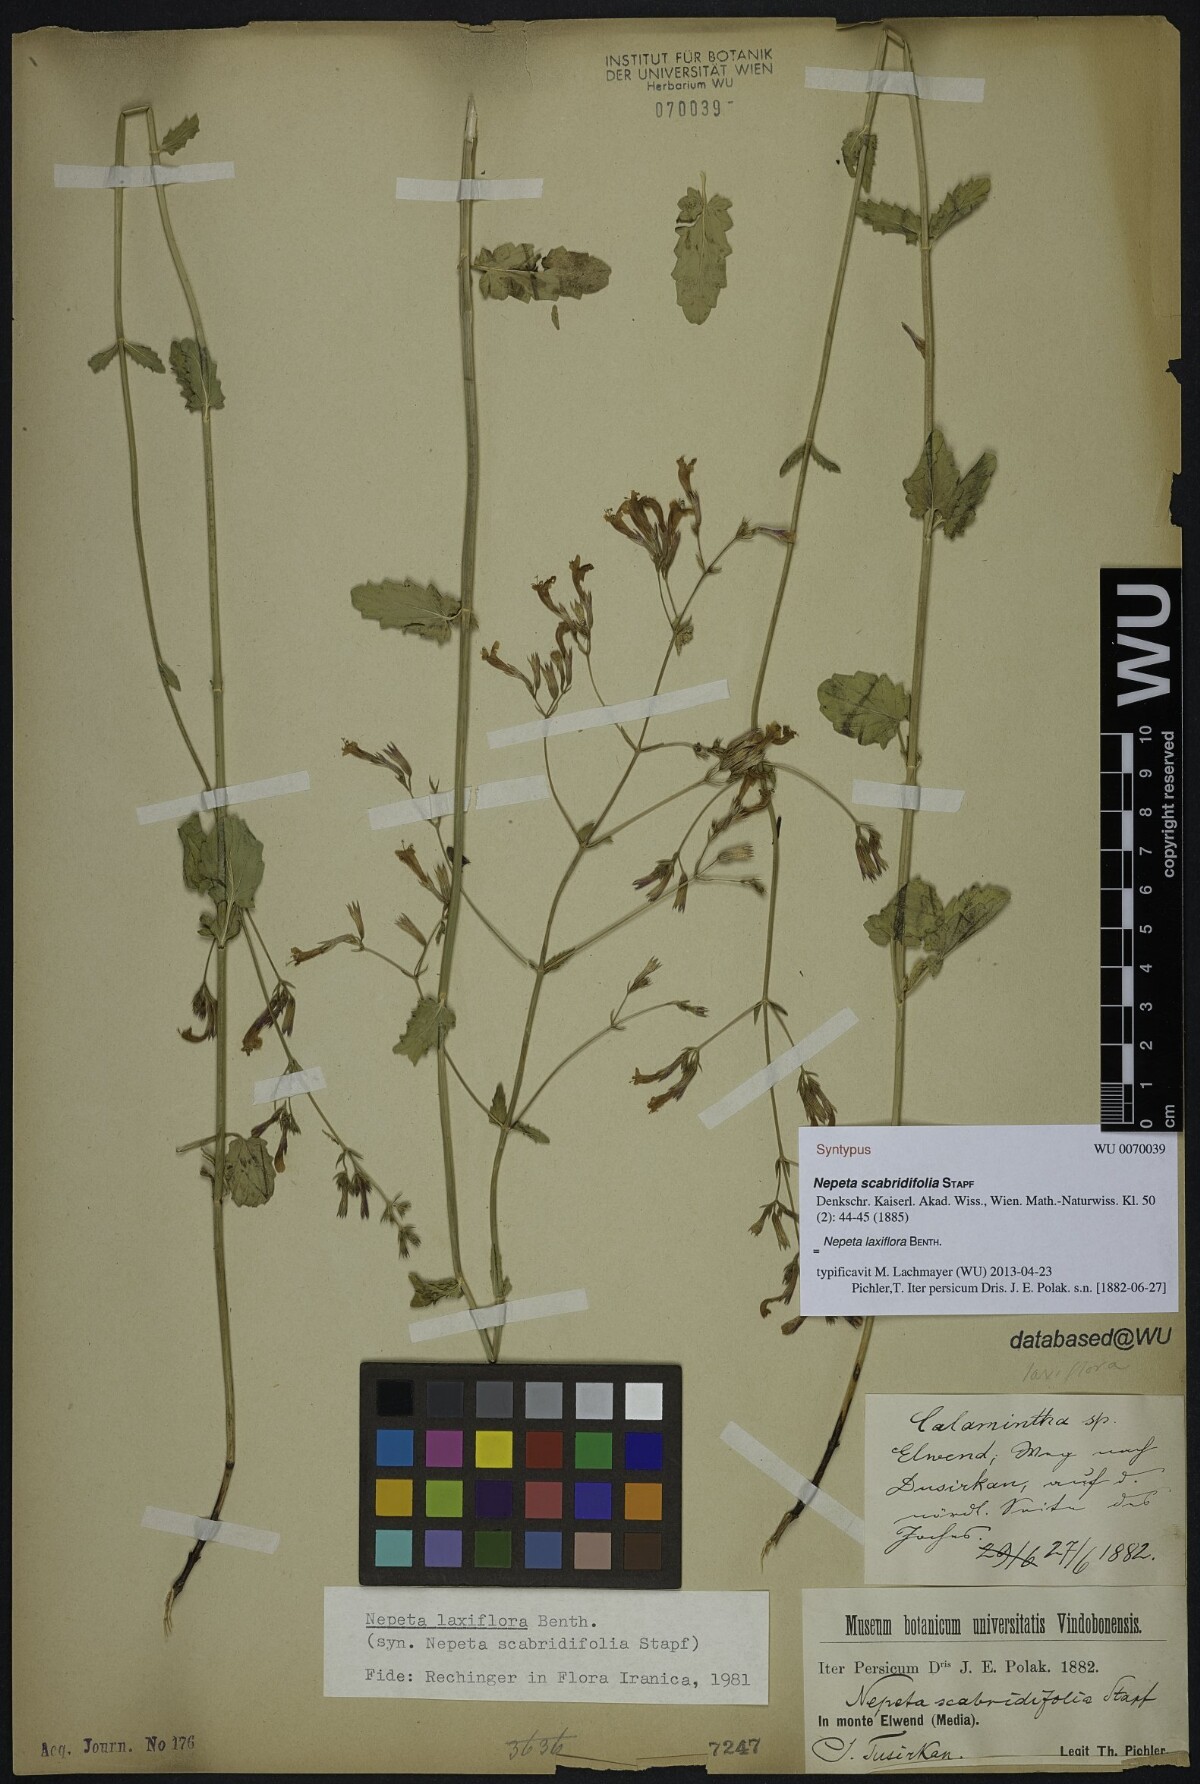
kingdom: Plantae
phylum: Tracheophyta
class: Magnoliopsida
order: Lamiales
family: Lamiaceae
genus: Nepeta
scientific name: Nepeta laxiflora
